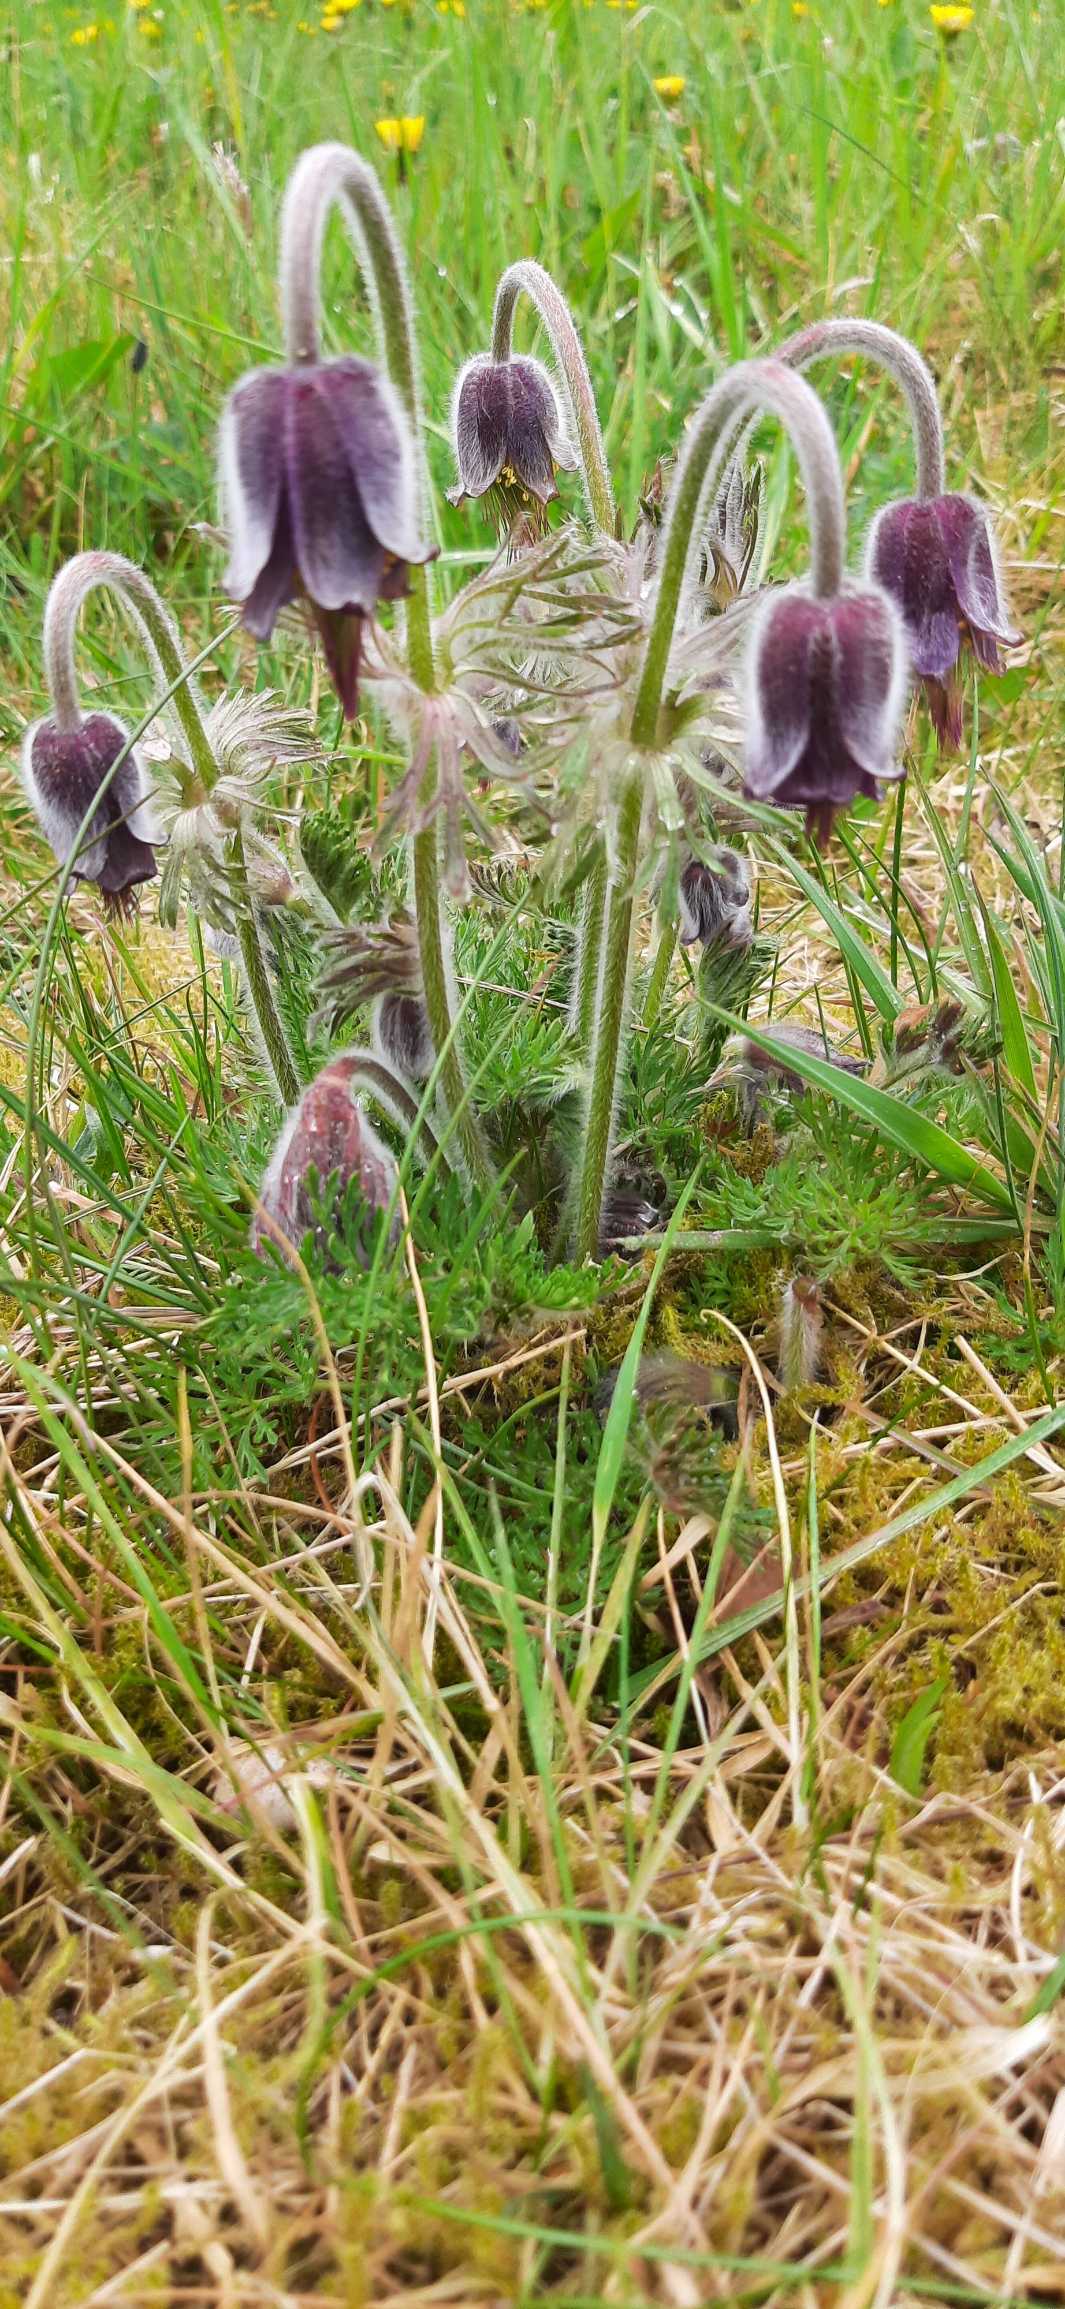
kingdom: Plantae
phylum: Tracheophyta
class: Magnoliopsida
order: Ranunculales
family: Ranunculaceae
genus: Pulsatilla
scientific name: Pulsatilla pratensis
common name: Nikkende kobjælde
